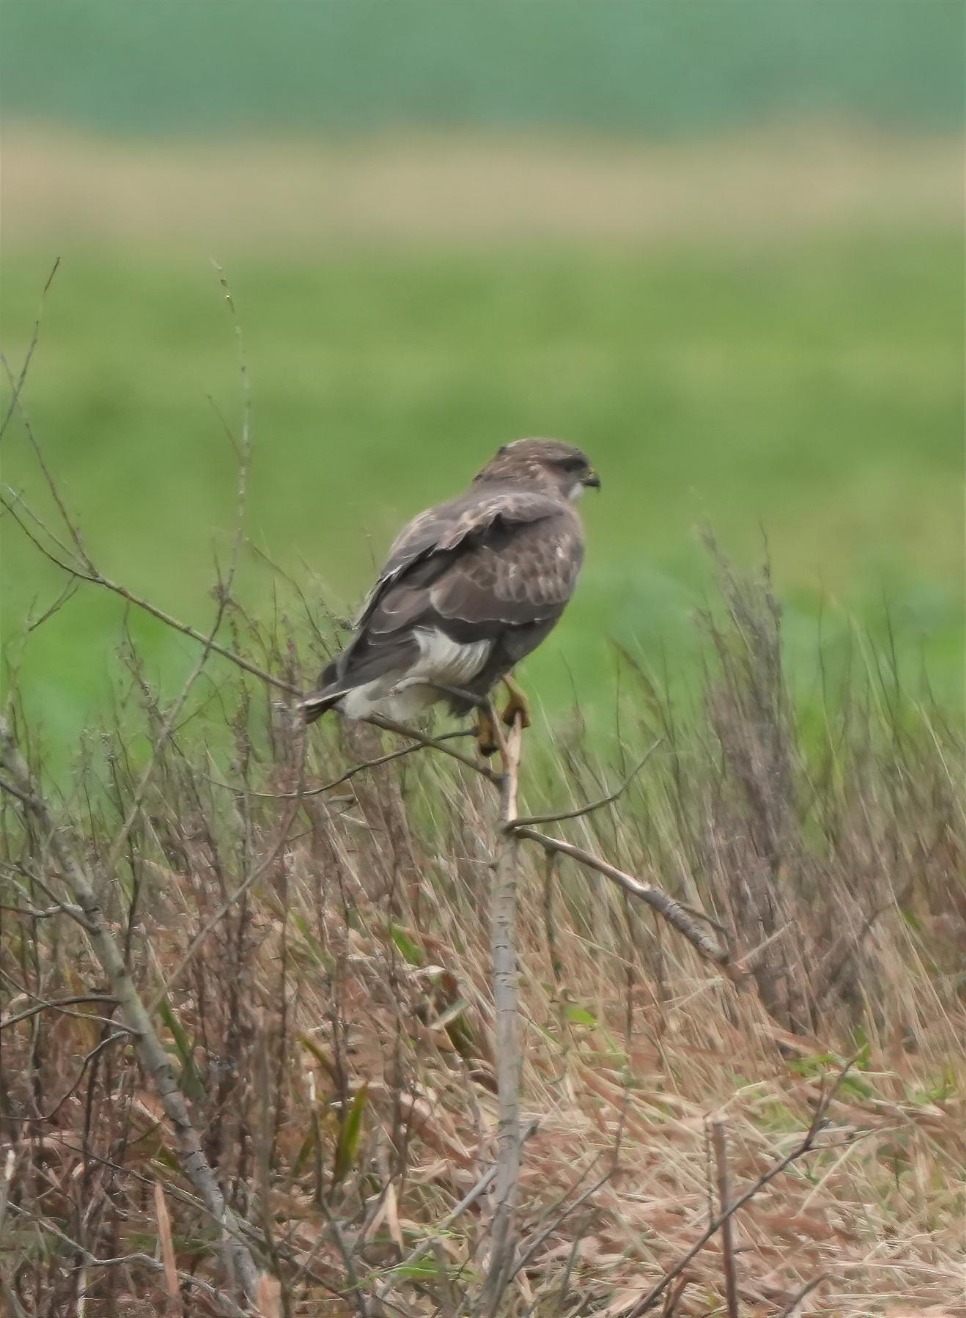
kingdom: Animalia
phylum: Chordata
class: Aves
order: Accipitriformes
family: Accipitridae
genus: Buteo
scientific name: Buteo buteo
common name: Musvåge
